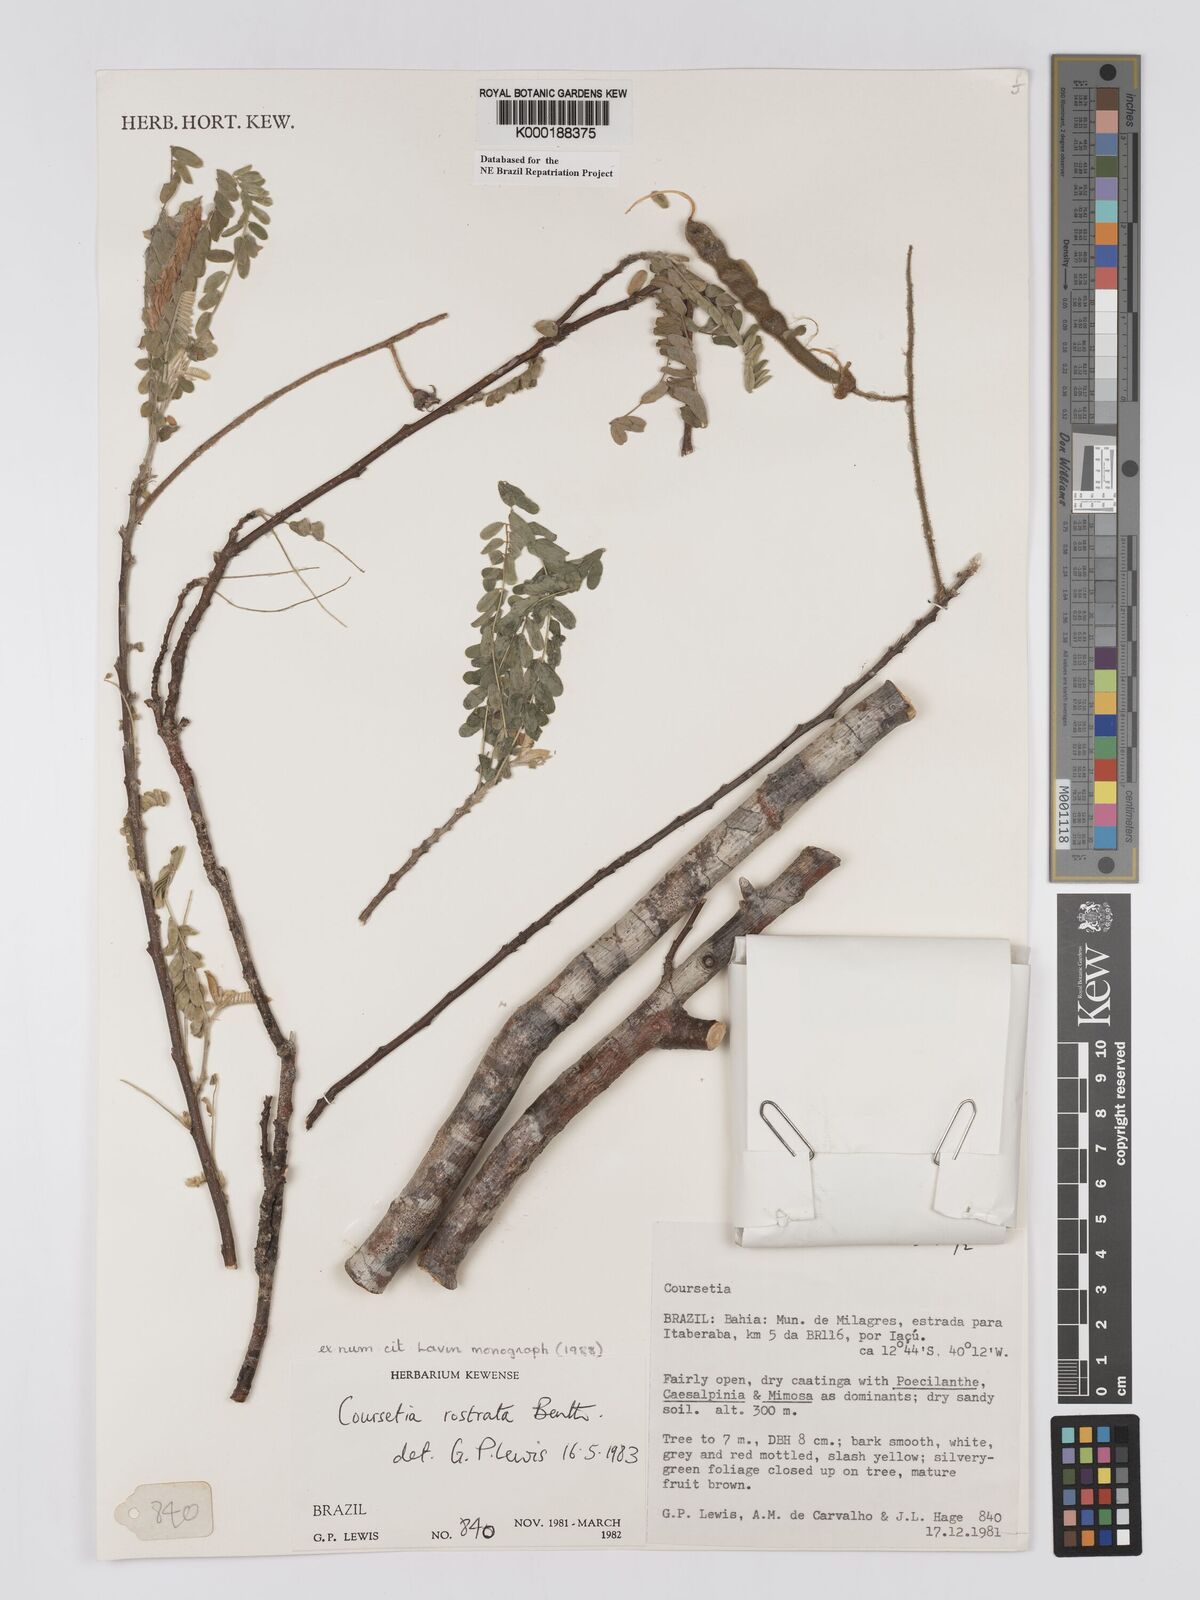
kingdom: Plantae
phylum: Tracheophyta
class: Magnoliopsida
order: Fabales
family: Fabaceae
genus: Coursetia
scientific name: Coursetia rostrata
